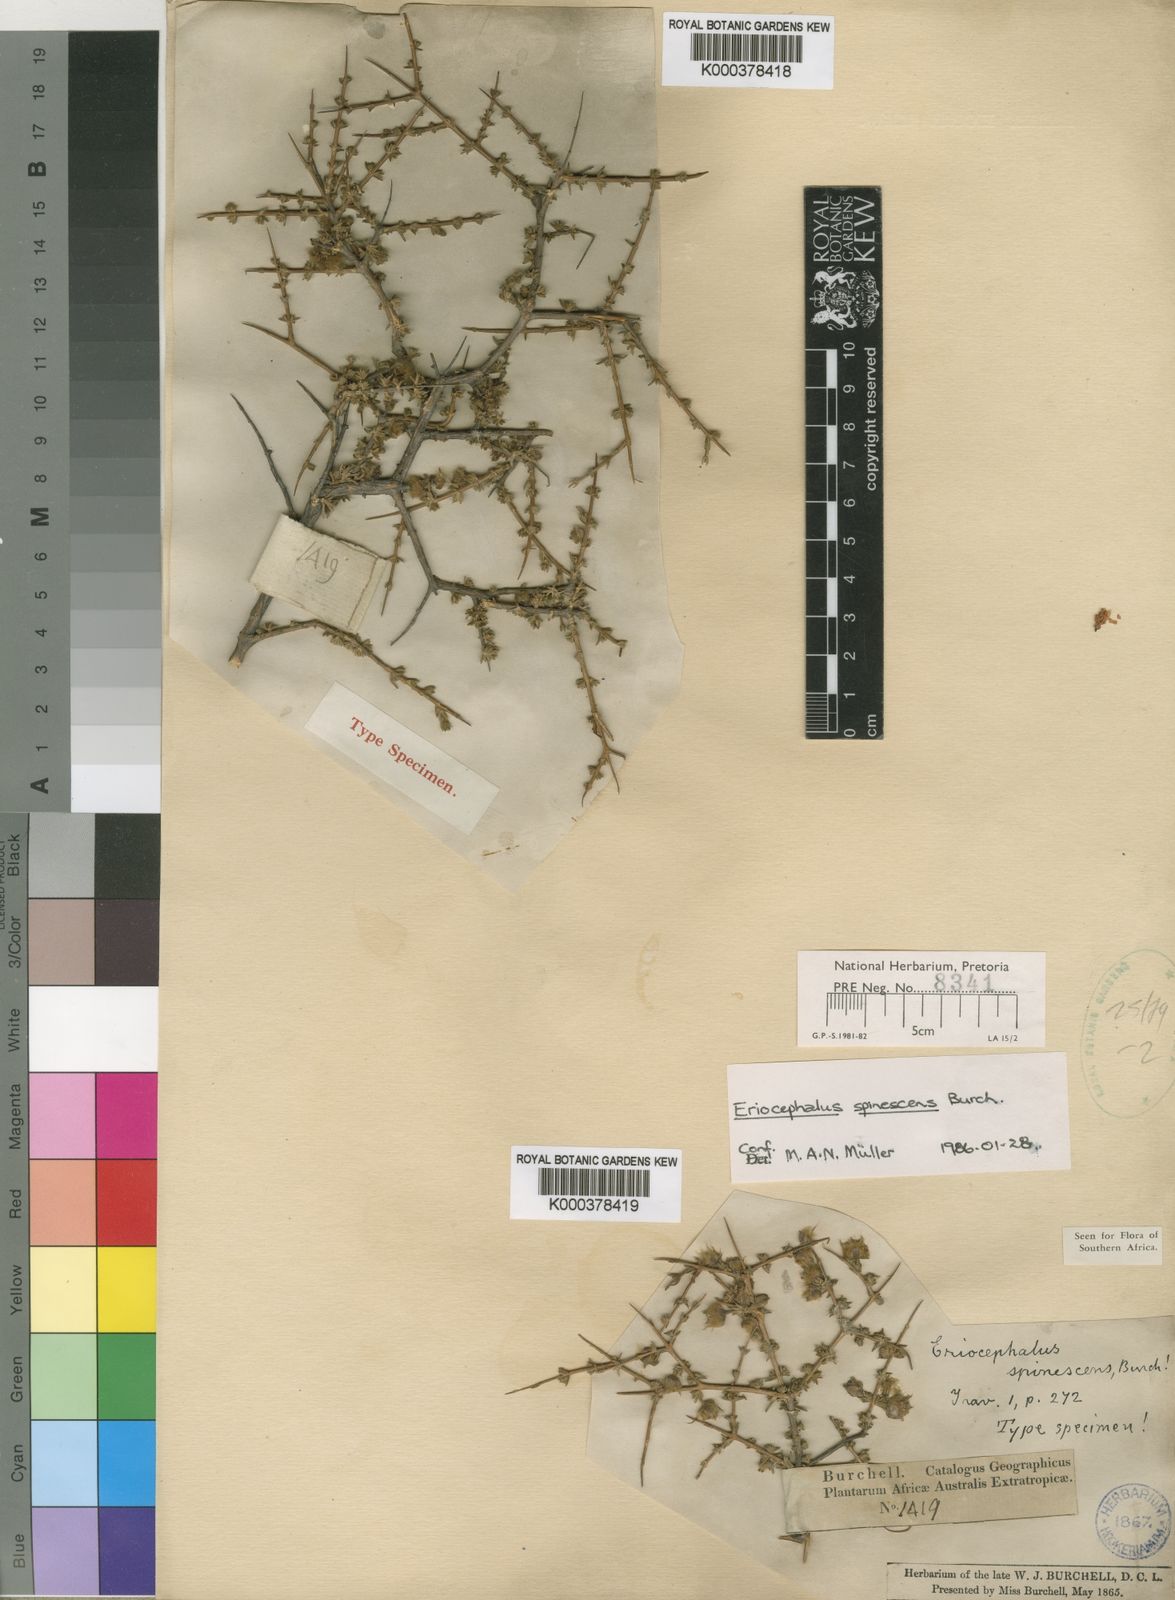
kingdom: Plantae
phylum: Tracheophyta
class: Magnoliopsida
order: Asterales
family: Asteraceae
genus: Eriocephalus
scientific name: Eriocephalus spinescens
